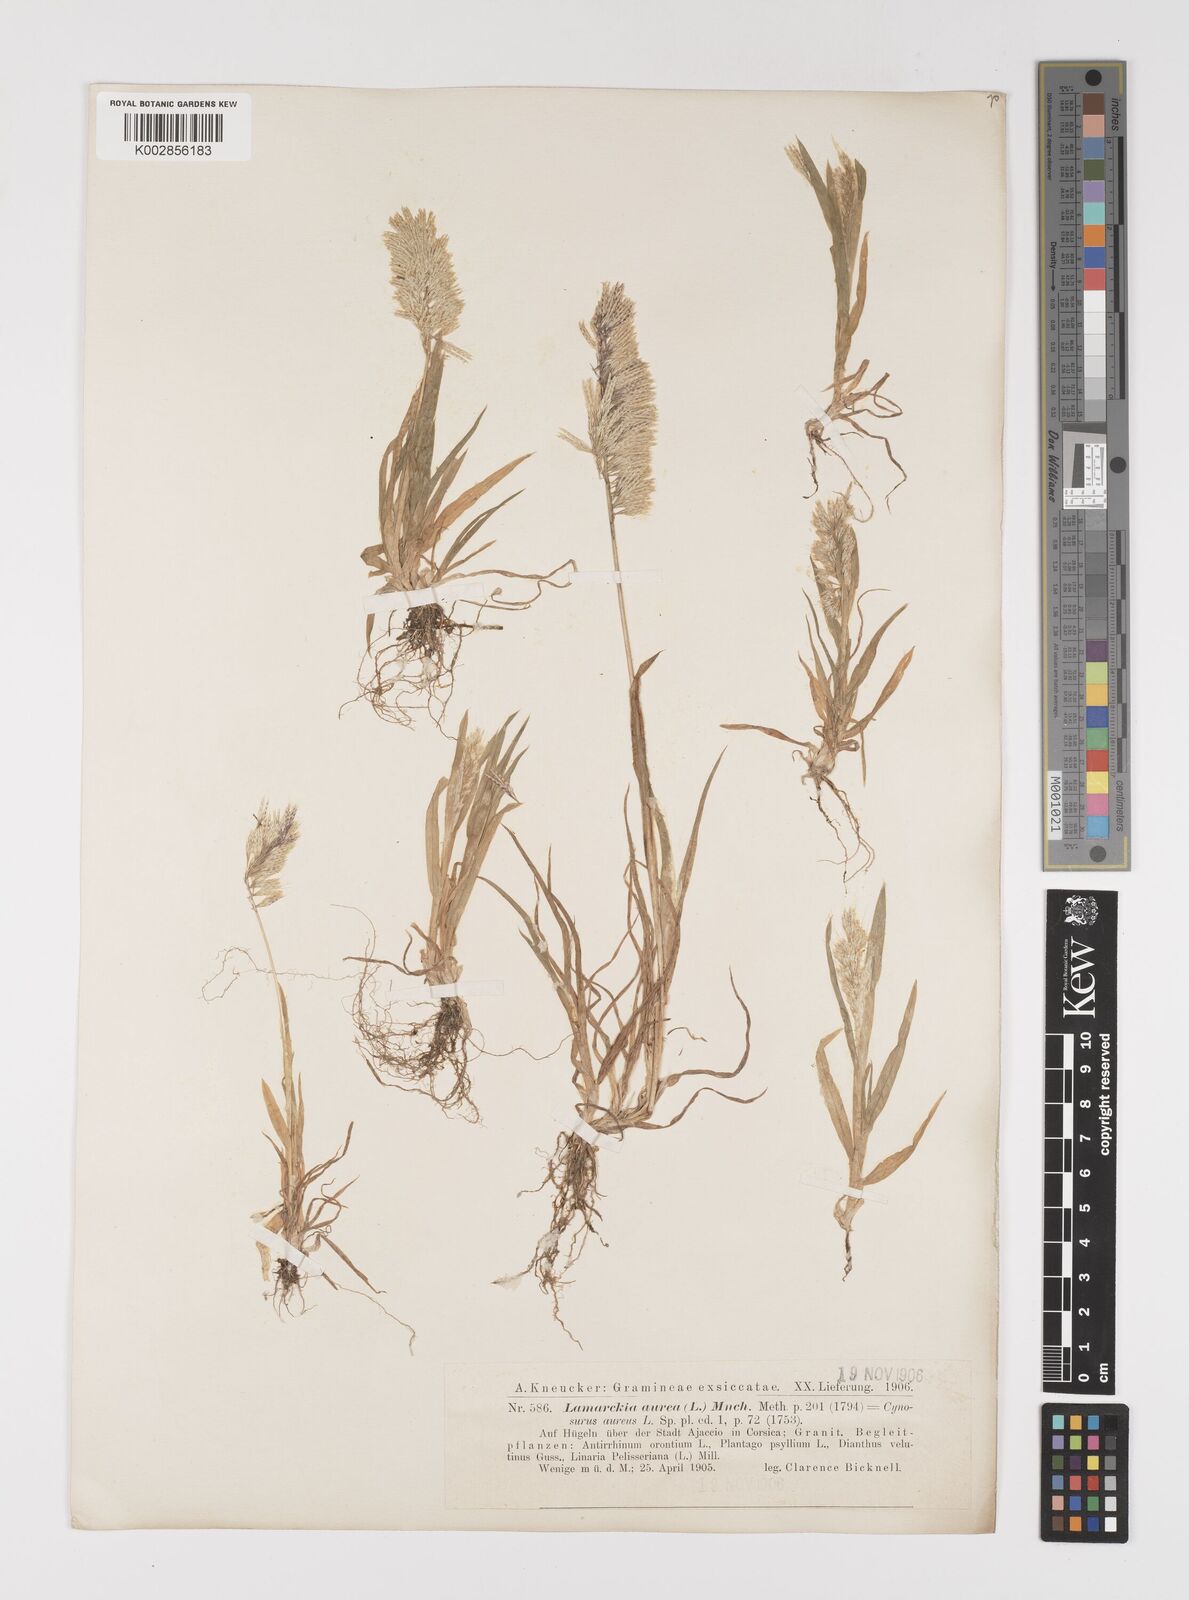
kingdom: Plantae
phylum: Tracheophyta
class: Liliopsida
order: Poales
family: Poaceae
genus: Lamarckia
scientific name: Lamarckia aurea
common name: Golden dog's-tail
